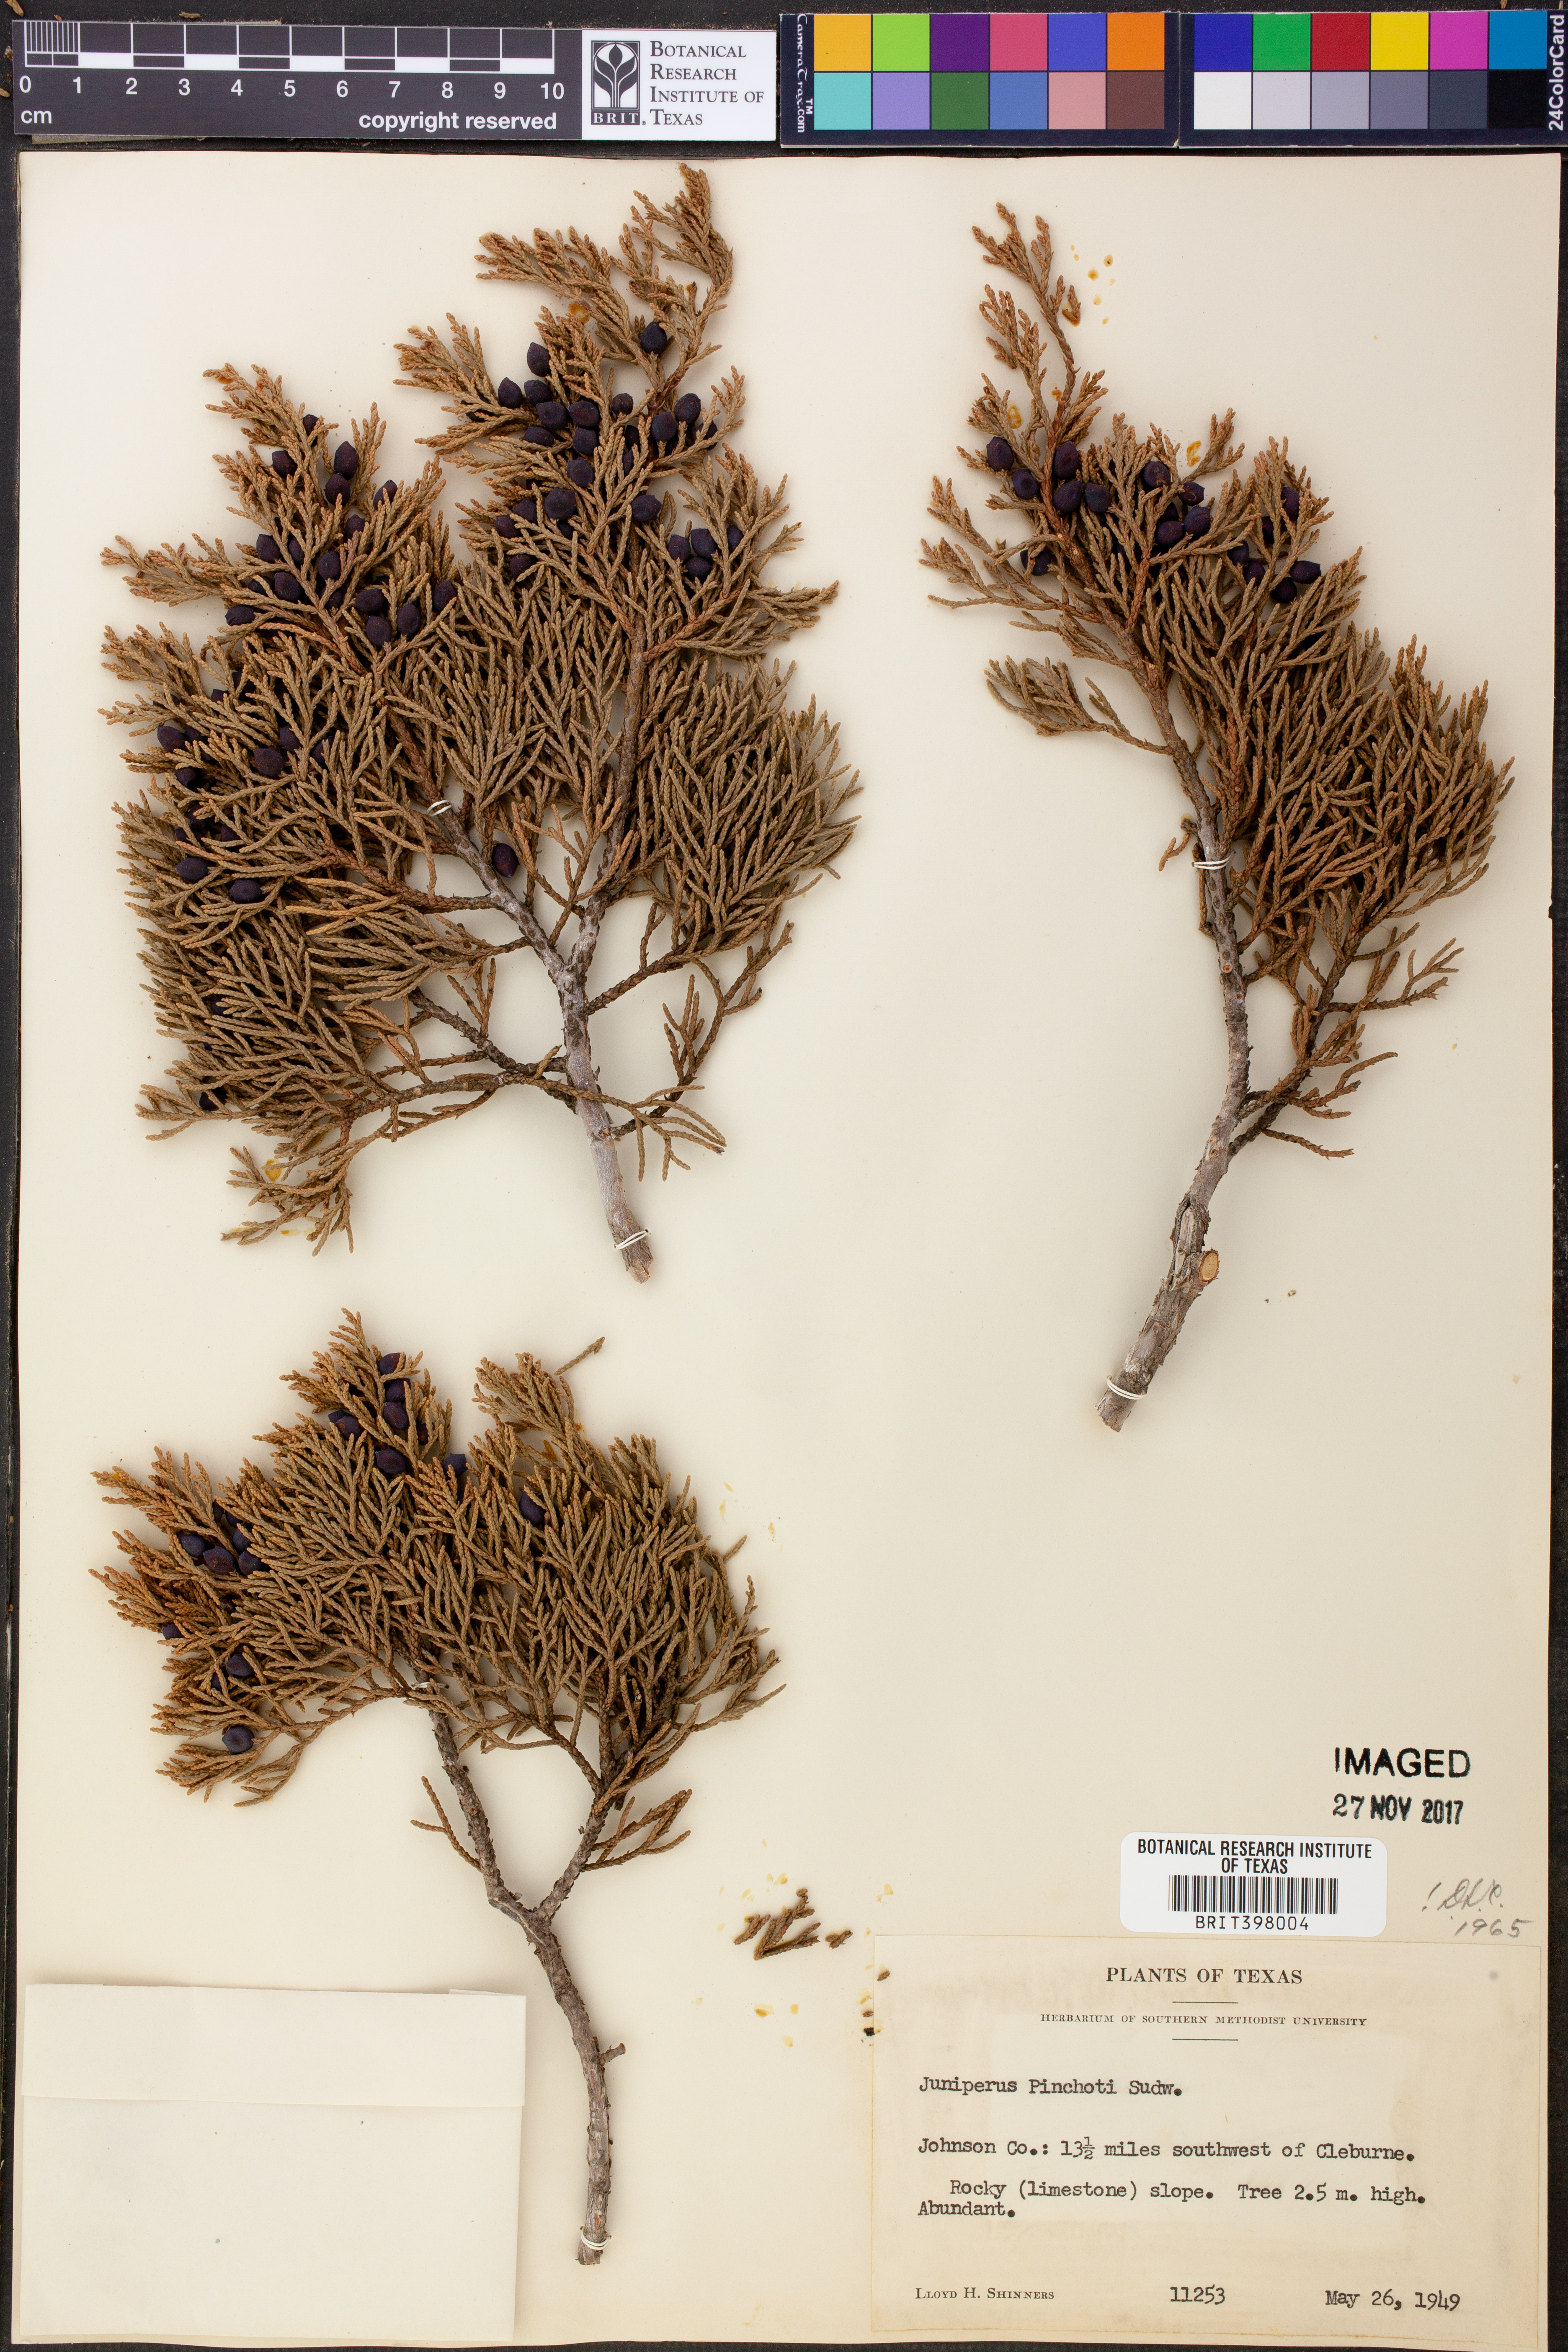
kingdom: Plantae
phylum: Tracheophyta
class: Pinopsida
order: Pinales
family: Cupressaceae
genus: Juniperus
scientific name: Juniperus pinchotii
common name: Pinchot juniper
